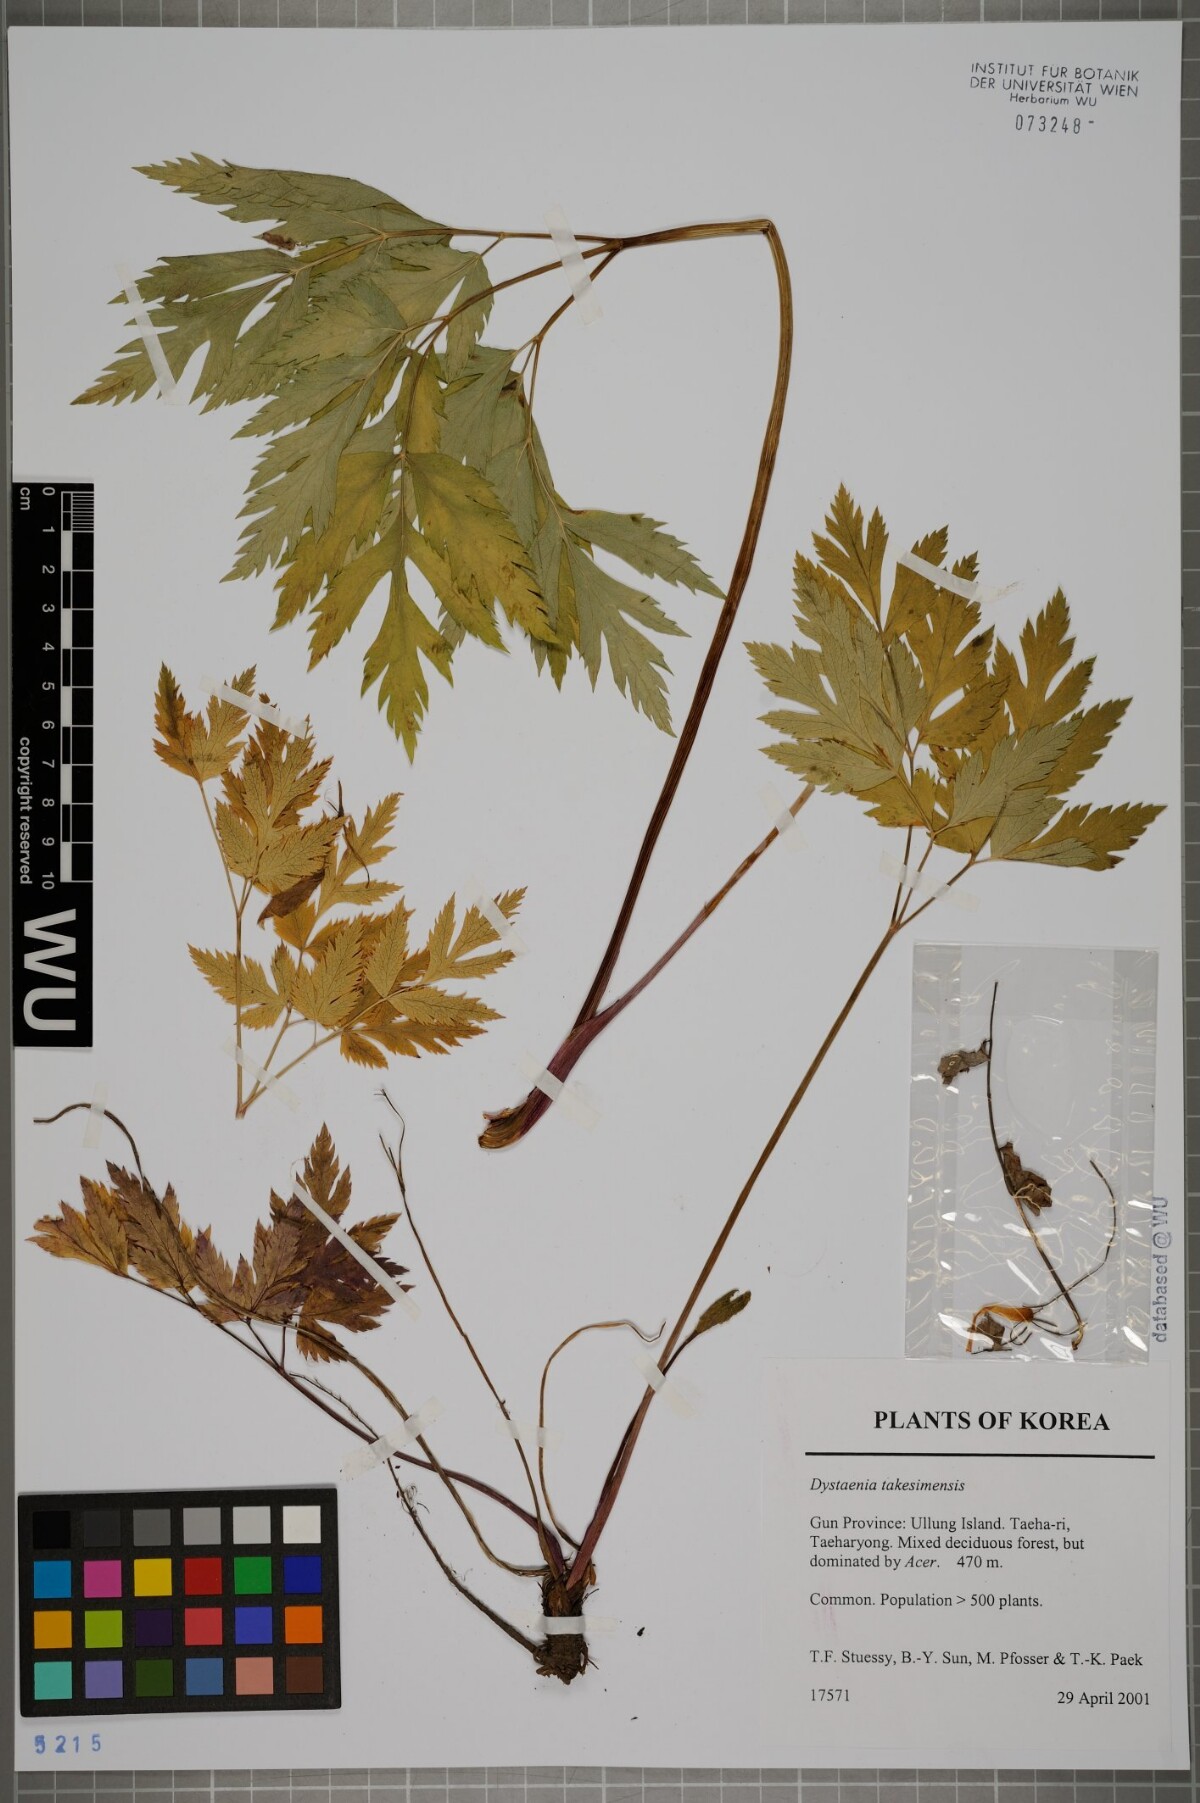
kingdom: Plantae
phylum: Tracheophyta
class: Magnoliopsida
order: Apiales
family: Apiaceae
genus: Dystaenia
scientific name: Dystaenia takeshimana
